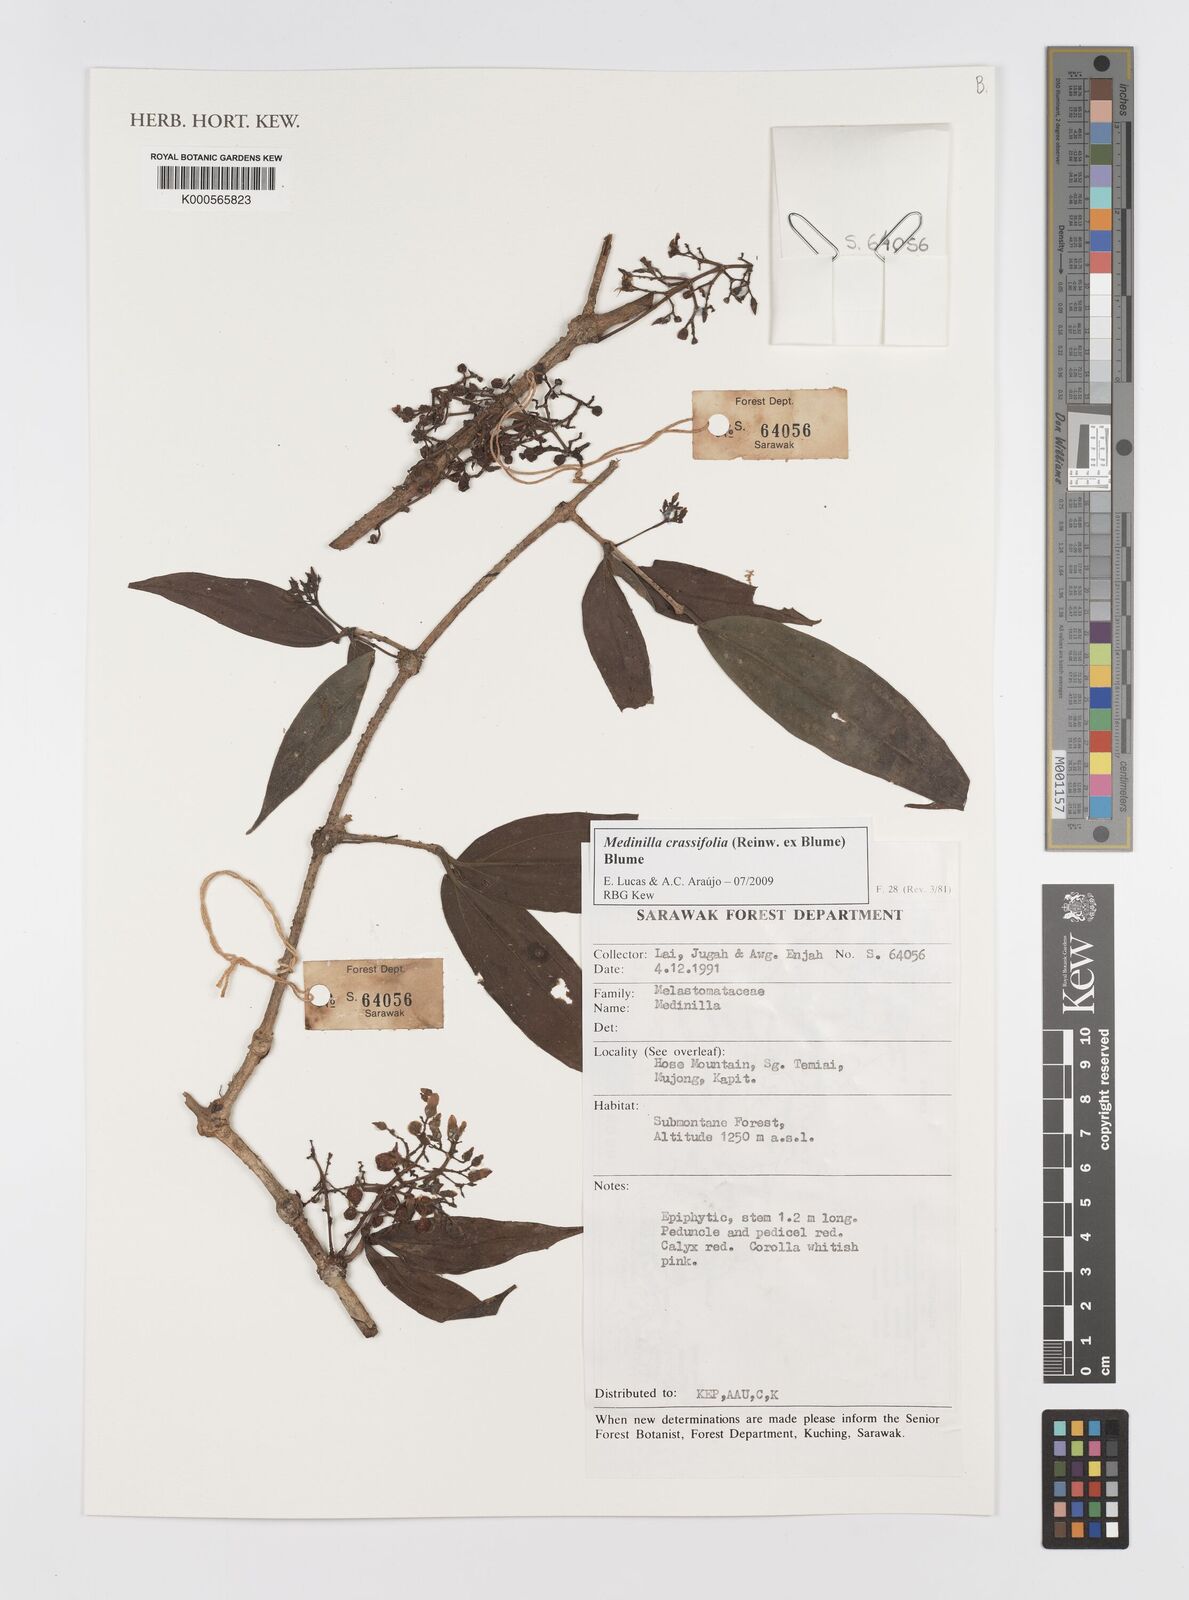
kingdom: Plantae
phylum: Tracheophyta
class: Magnoliopsida
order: Myrtales
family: Melastomataceae
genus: Medinilla
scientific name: Medinilla crassifolia
